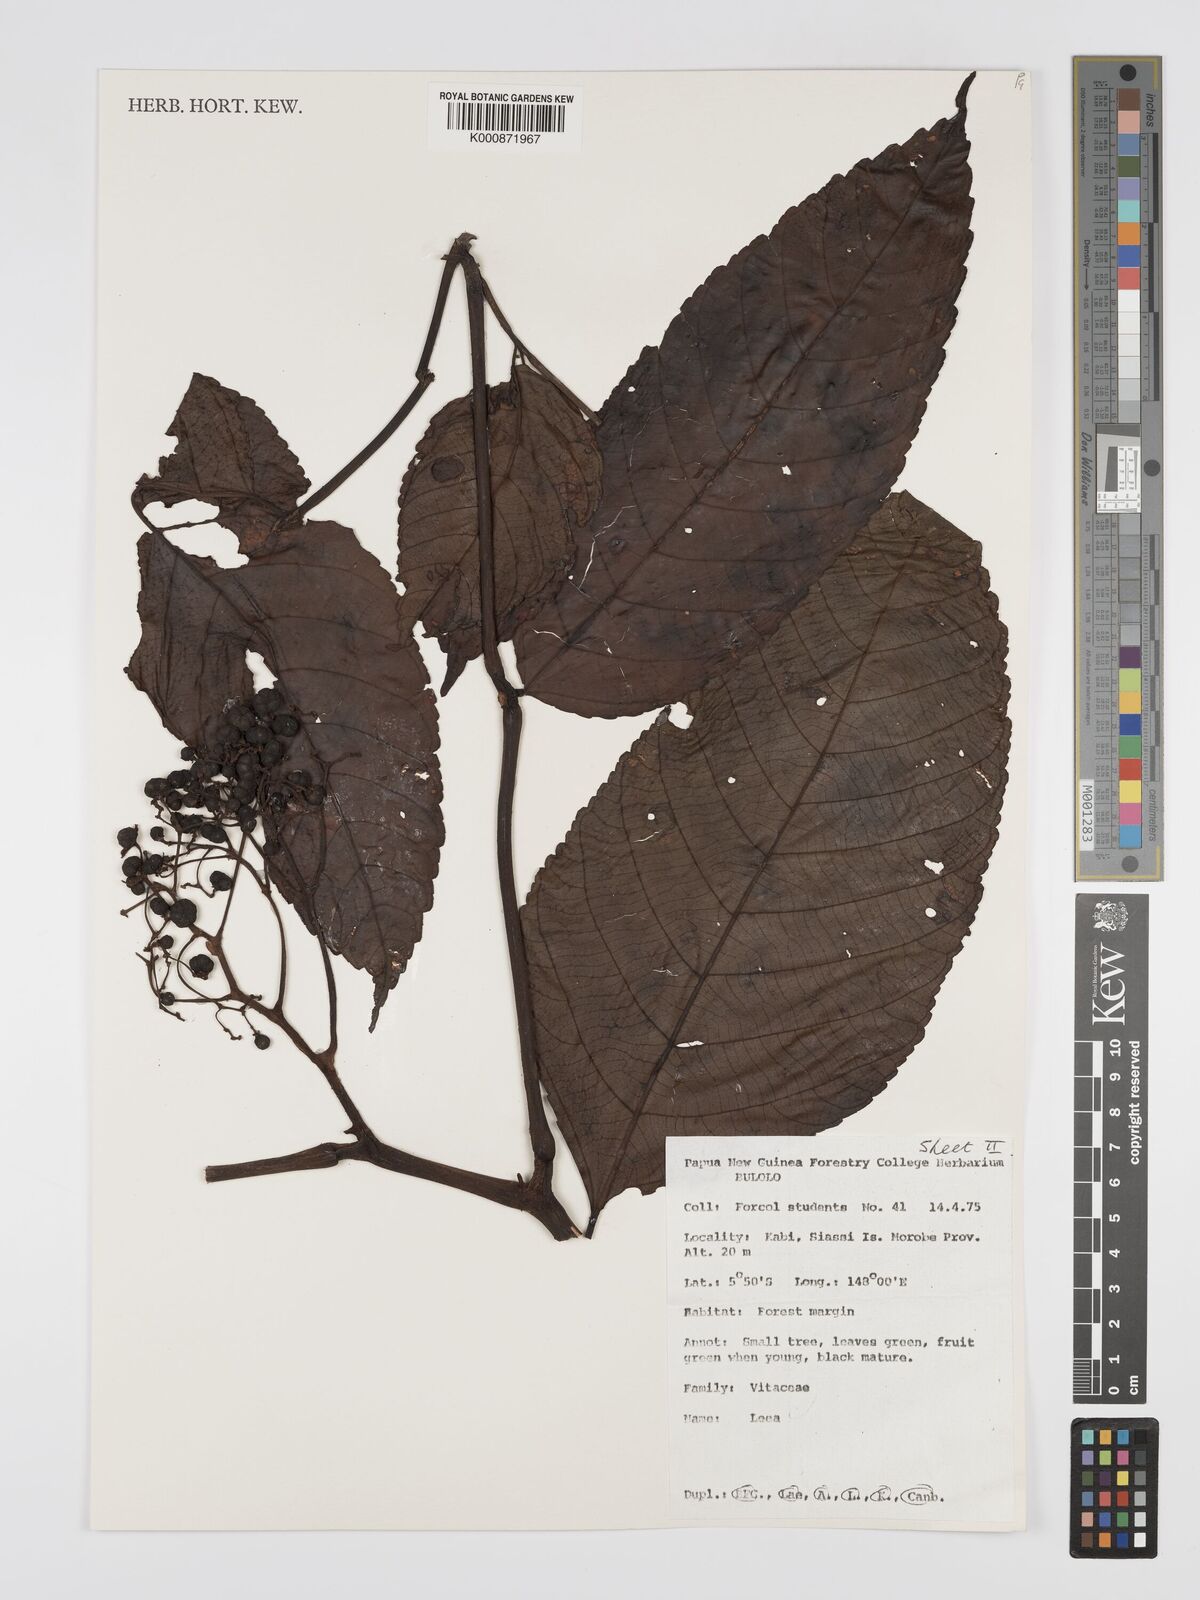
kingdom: Plantae
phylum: Tracheophyta
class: Magnoliopsida
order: Vitales
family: Vitaceae
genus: Leea
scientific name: Leea
